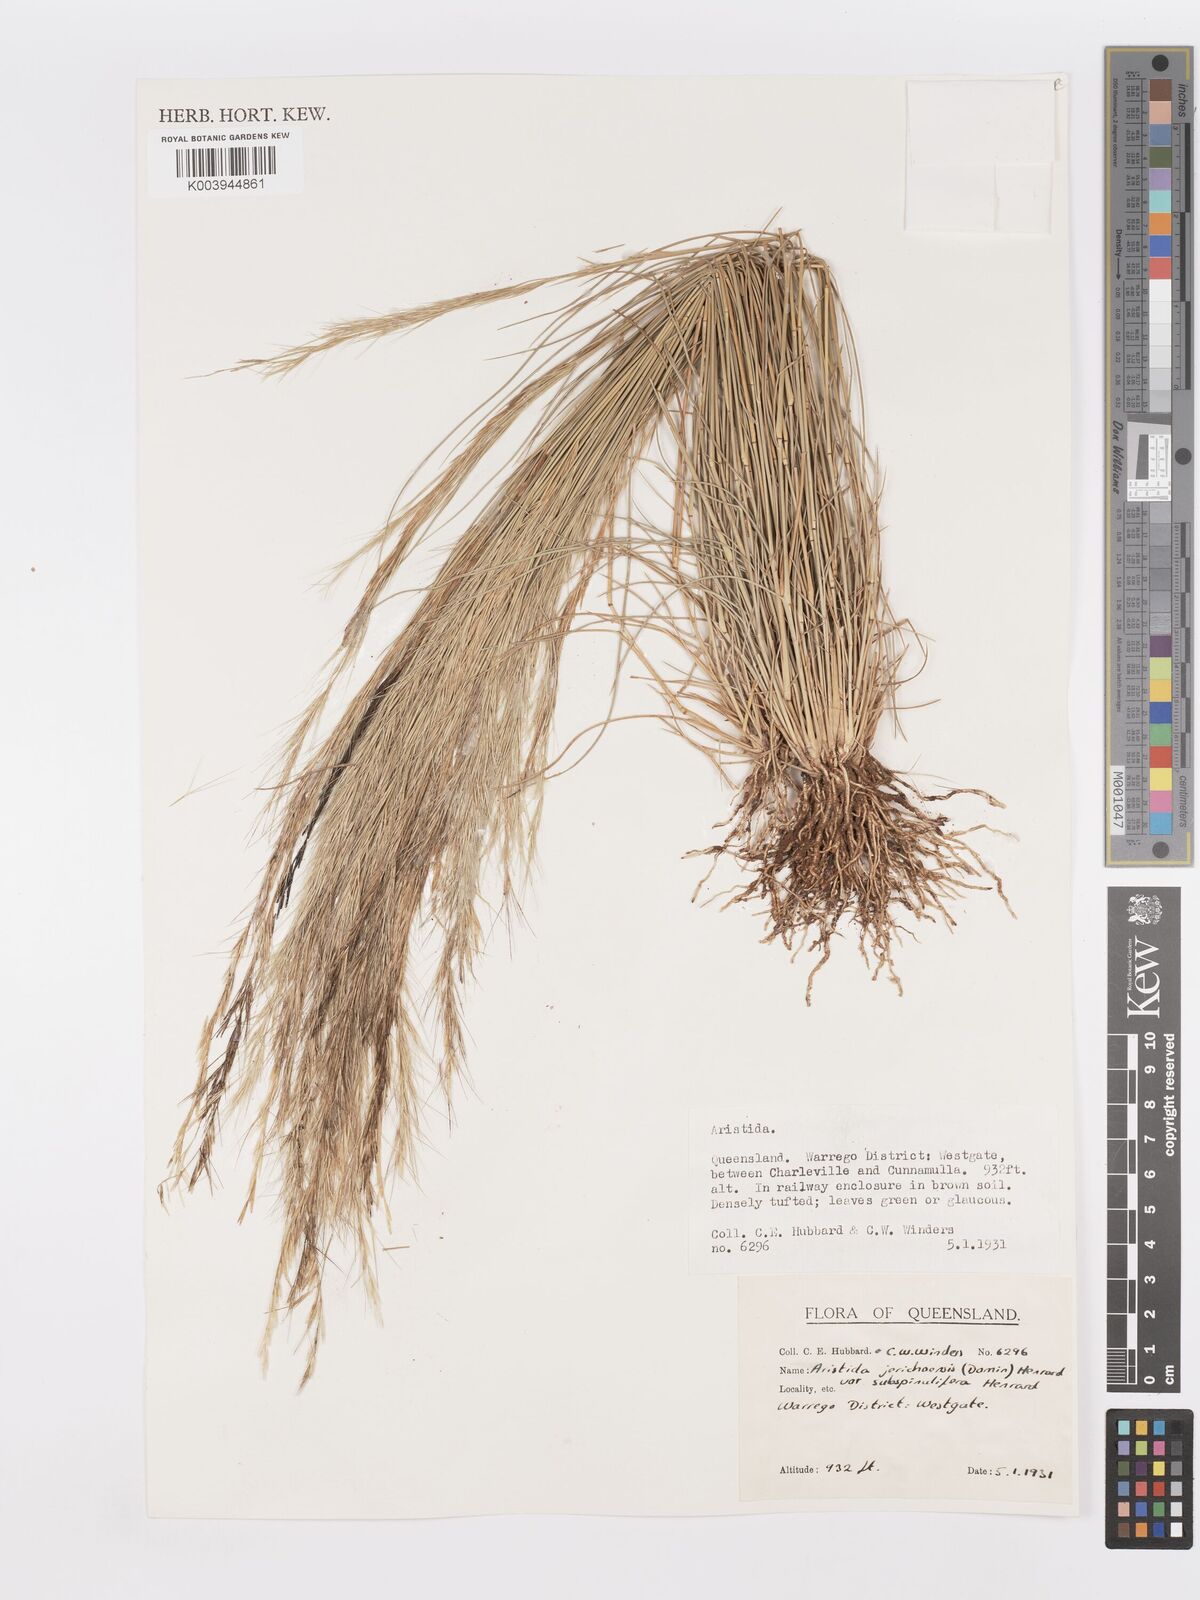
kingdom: Plantae
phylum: Tracheophyta
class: Liliopsida
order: Poales
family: Poaceae
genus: Aristida
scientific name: Aristida jerichoensis
